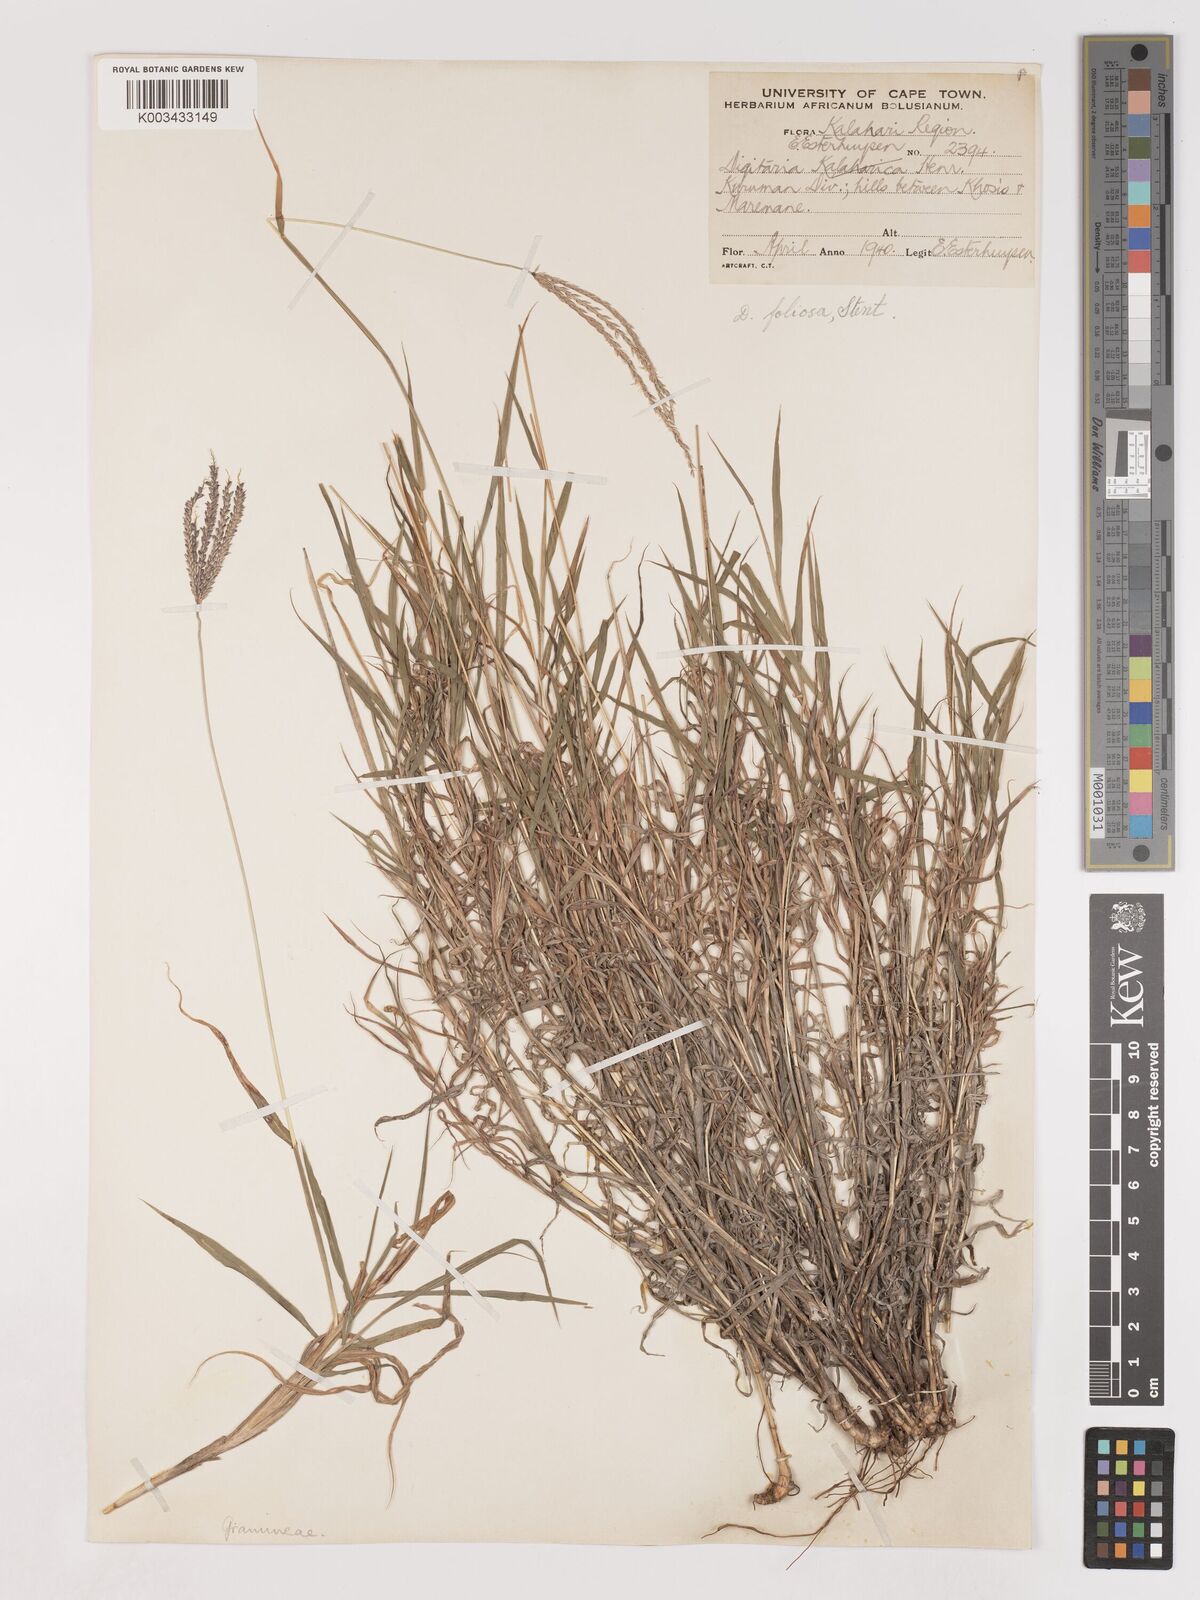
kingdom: Plantae
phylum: Tracheophyta
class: Liliopsida
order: Poales
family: Poaceae
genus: Digitaria
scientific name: Digitaria polyphylla
